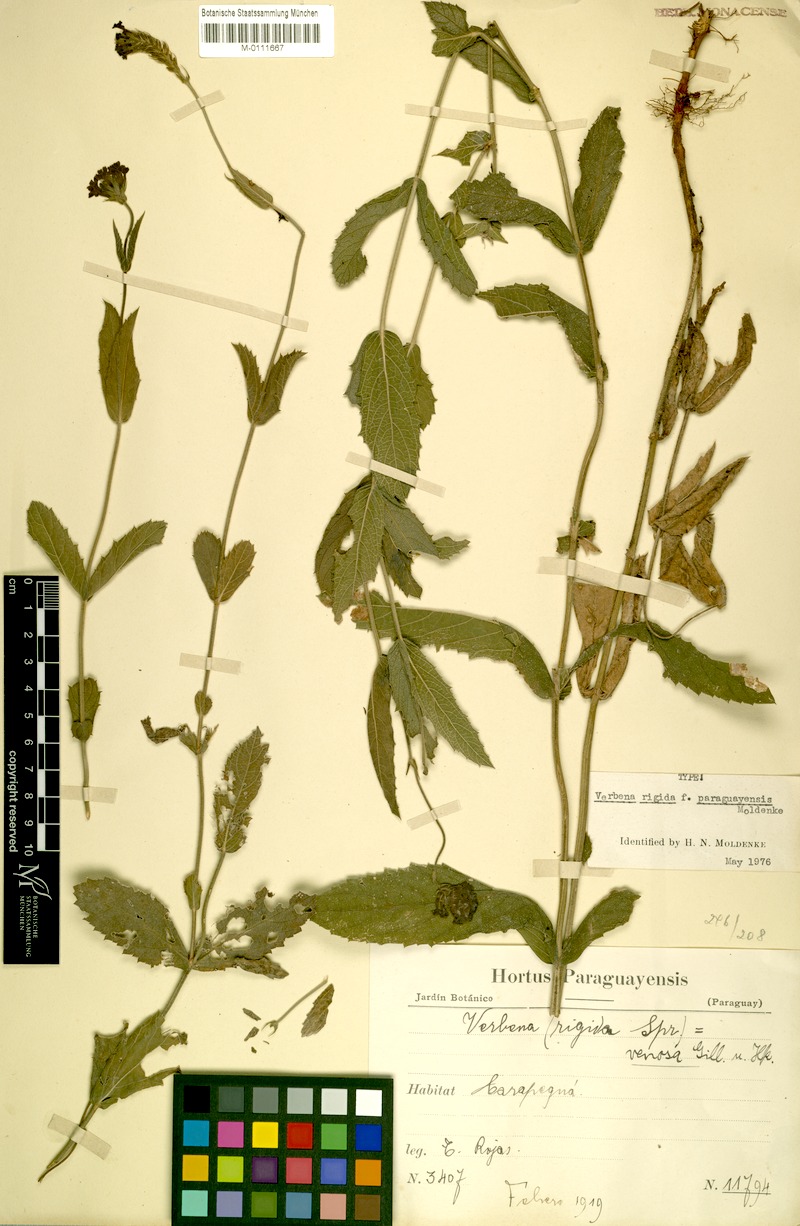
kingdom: Plantae
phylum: Tracheophyta
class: Magnoliopsida
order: Lamiales
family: Verbenaceae
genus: Verbena
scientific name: Verbena rigida
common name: Slender vervain
